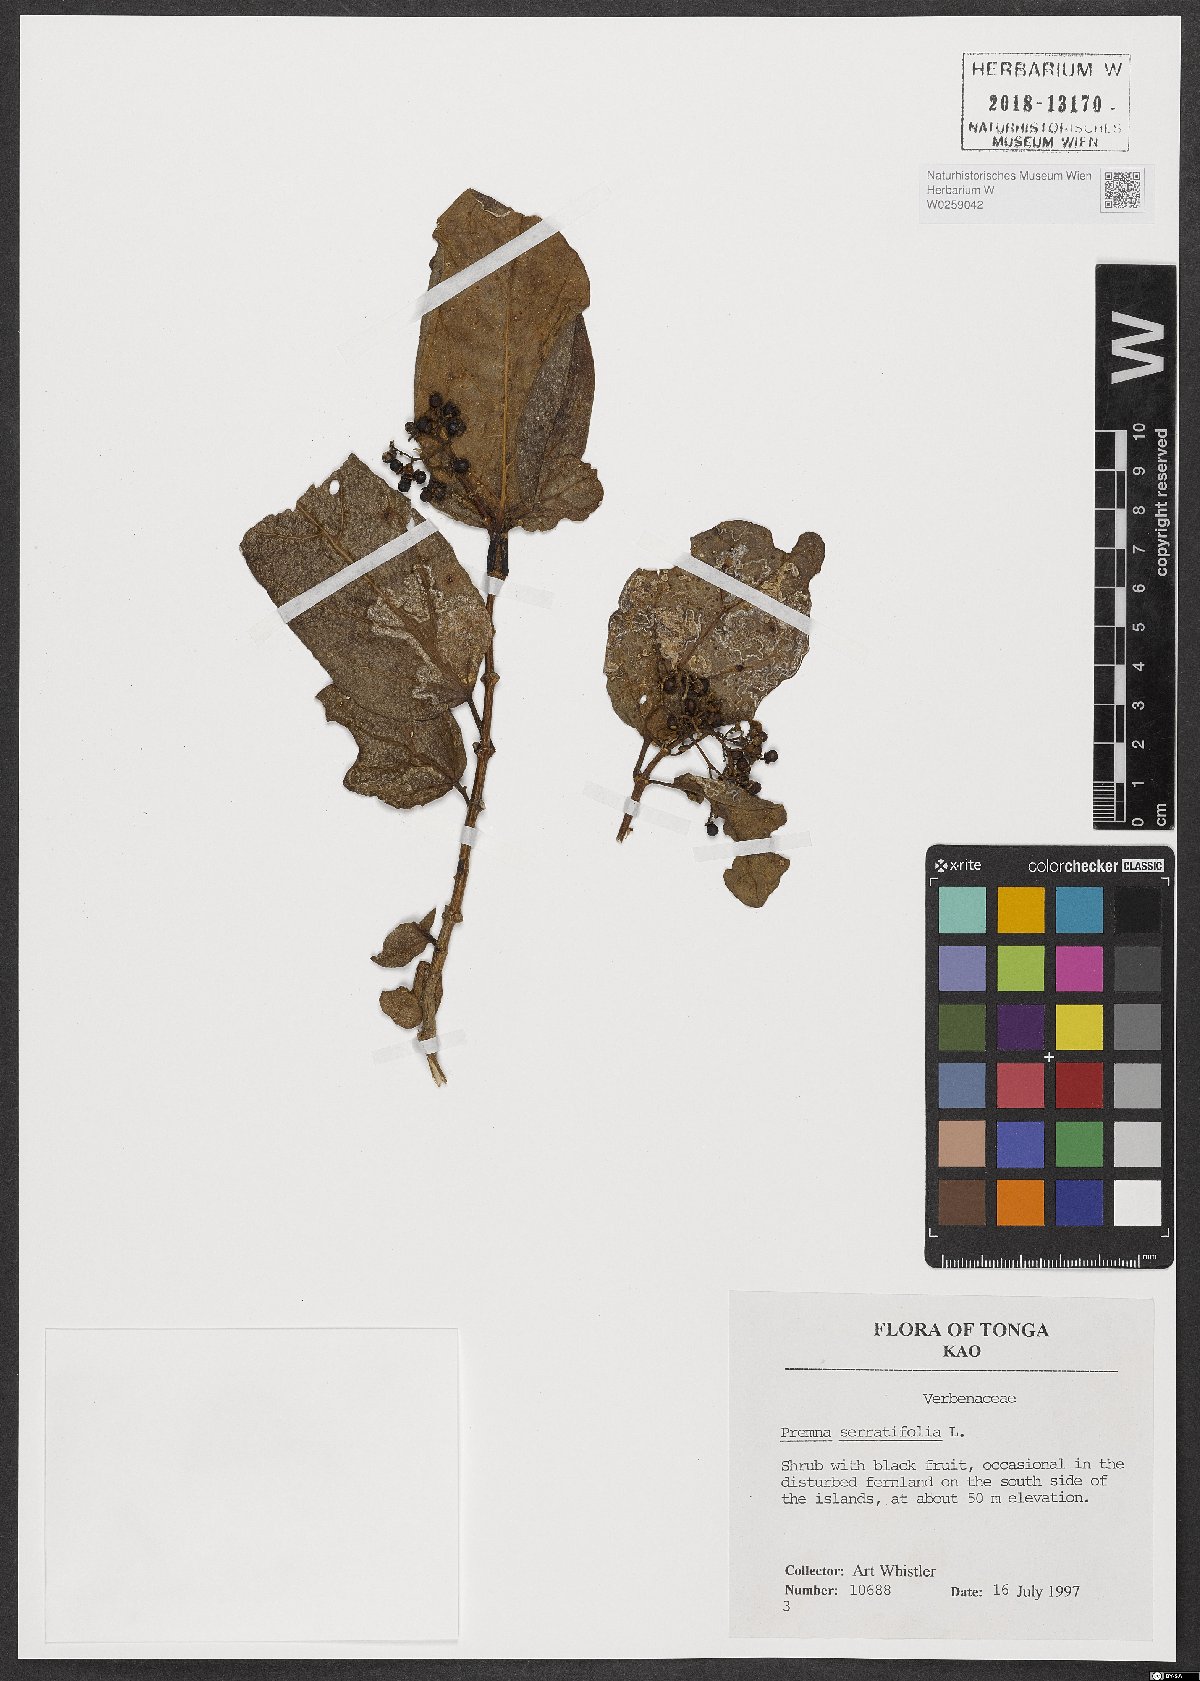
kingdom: Plantae
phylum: Tracheophyta
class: Magnoliopsida
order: Lamiales
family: Lamiaceae
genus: Premna
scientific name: Premna serratifolia
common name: Bastard guelder
